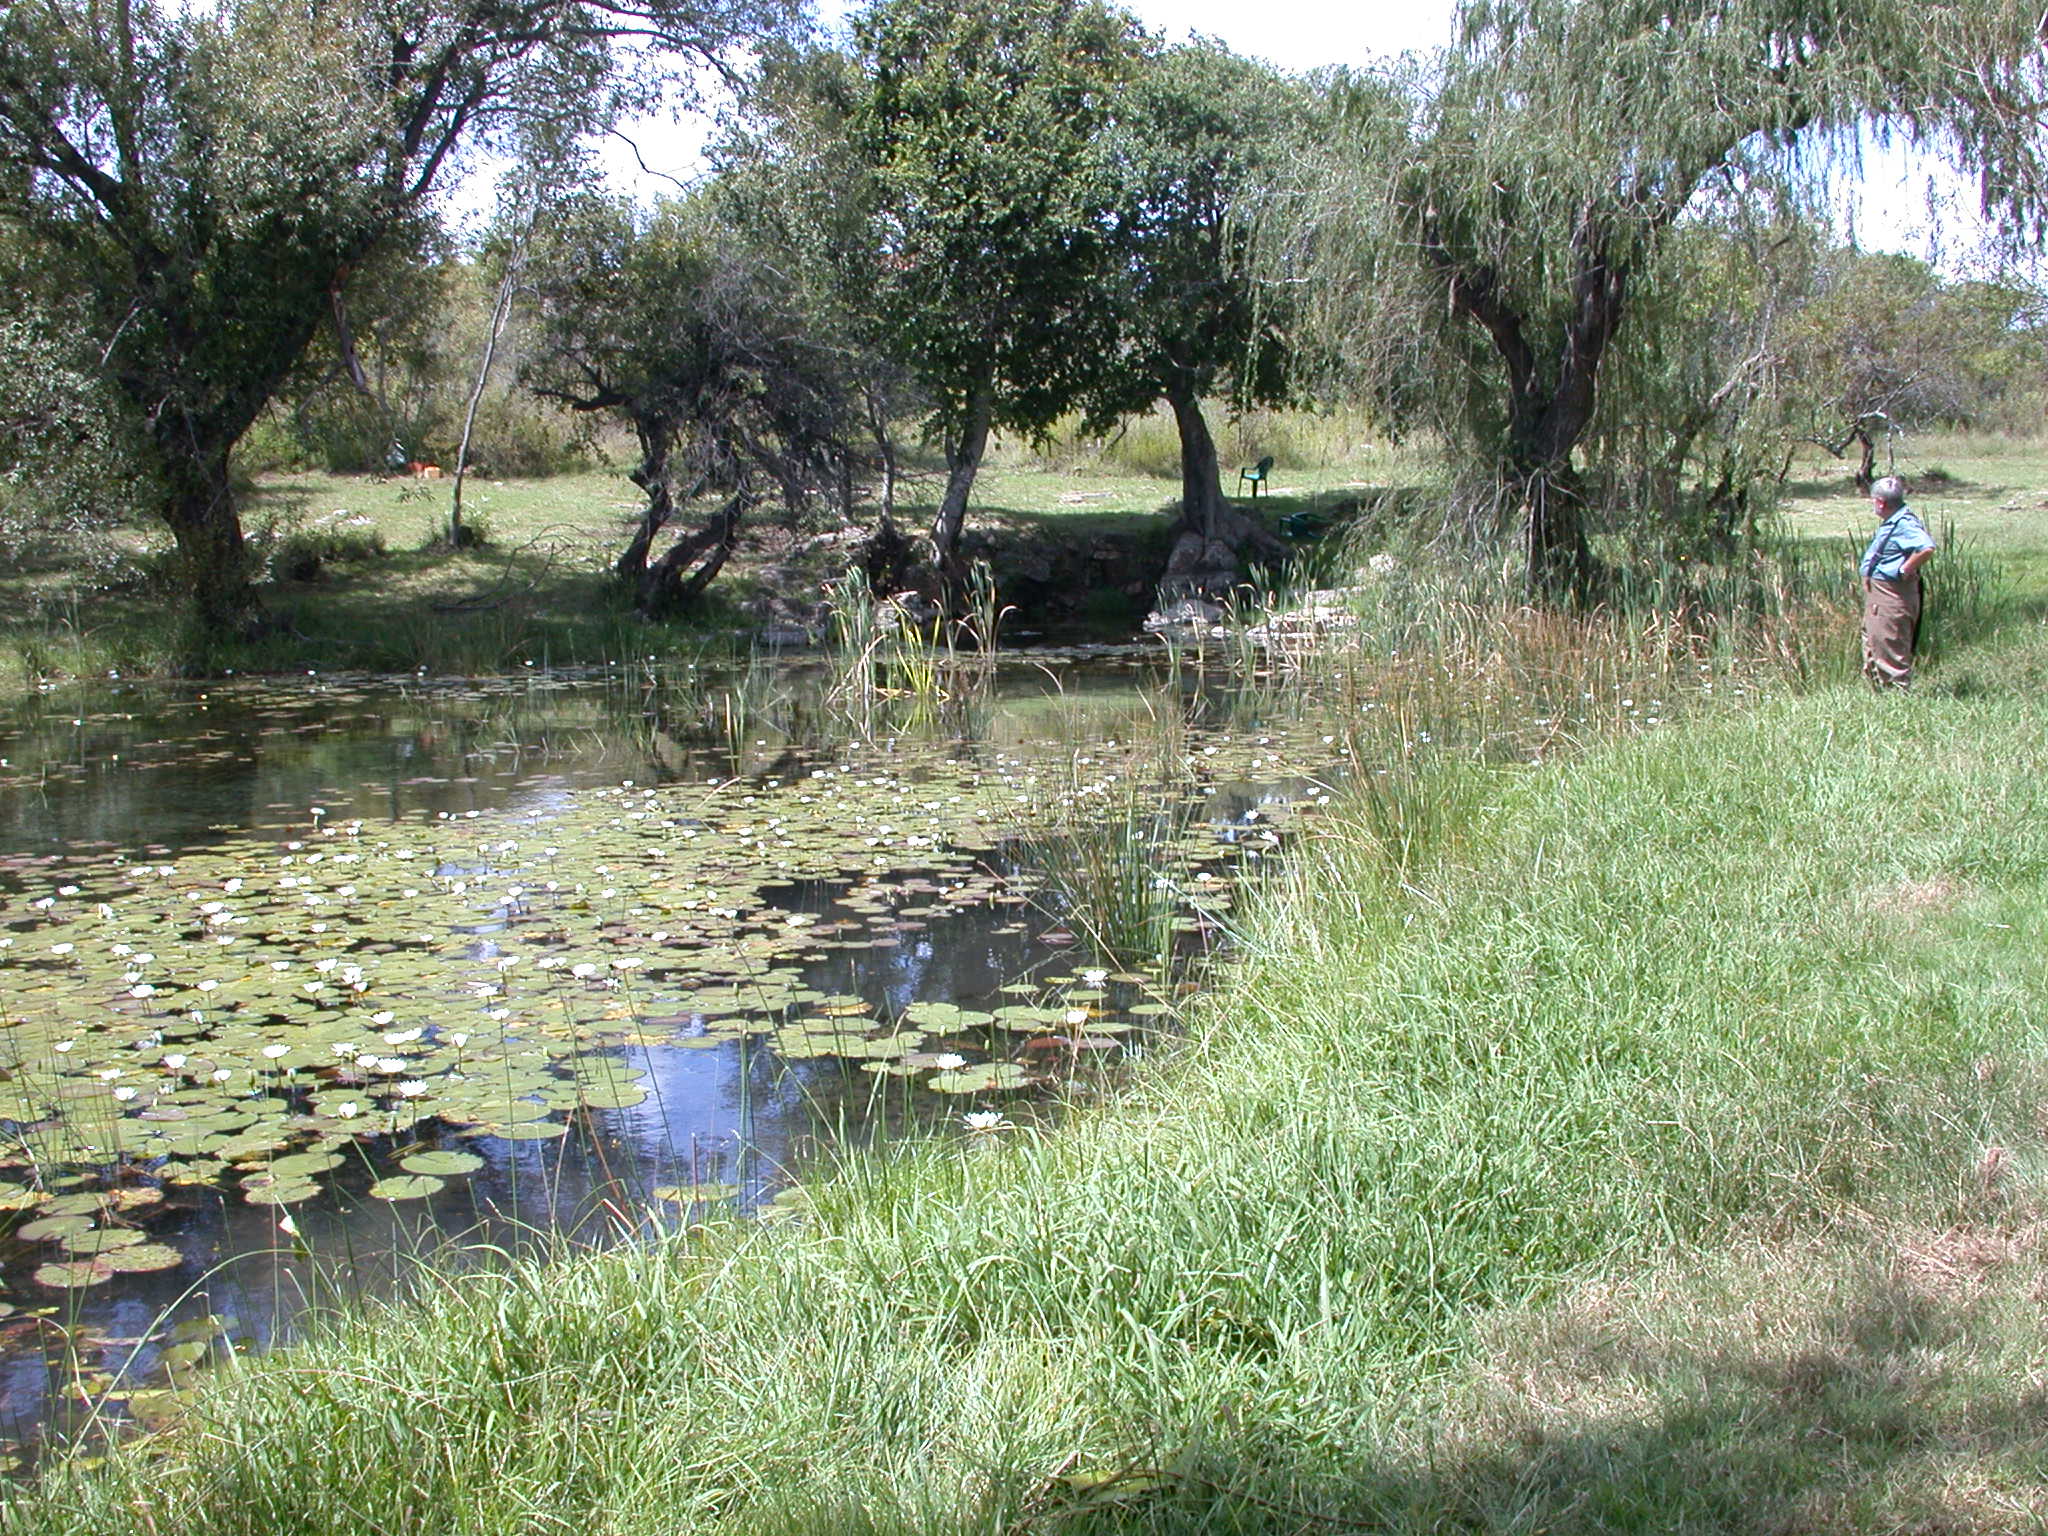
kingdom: Animalia
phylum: Chordata
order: Perciformes
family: Cichlidae
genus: Pseudocrenilabrus
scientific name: Pseudocrenilabrus philander
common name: Southern mouthbrooder
